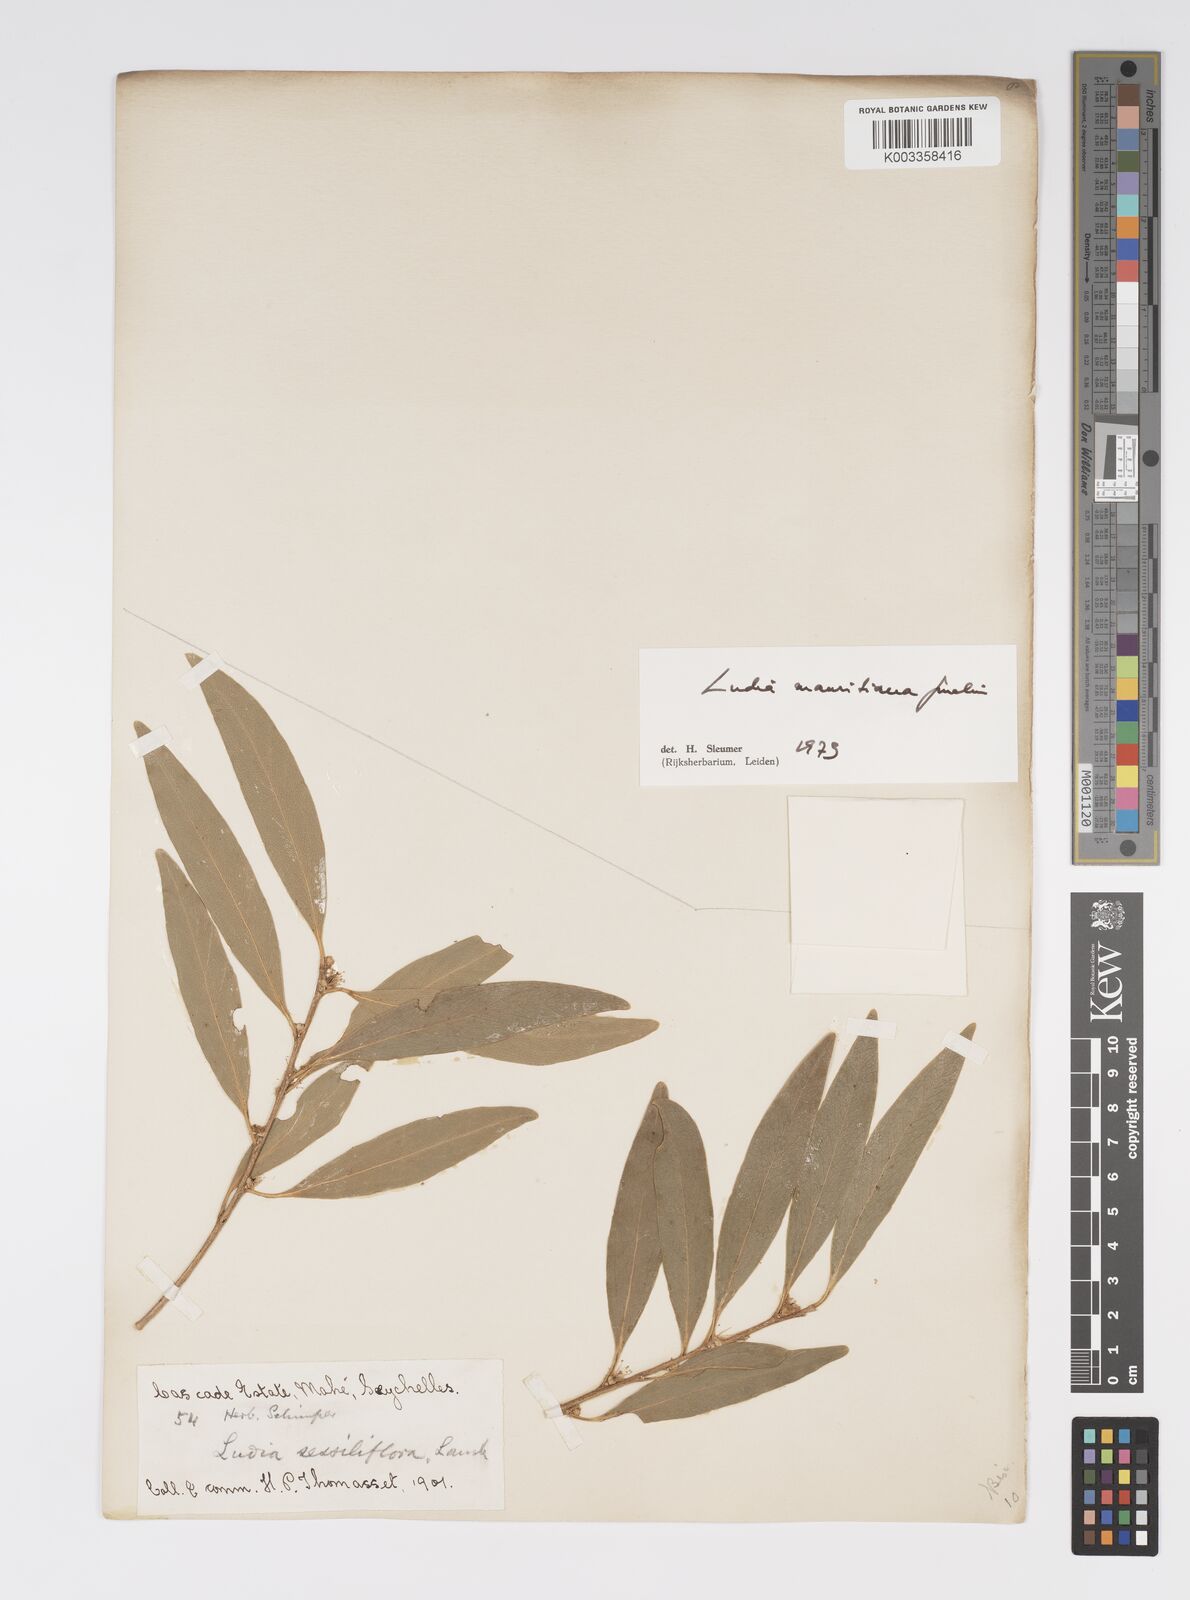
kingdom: Plantae
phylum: Tracheophyta
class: Magnoliopsida
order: Malpighiales
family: Salicaceae
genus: Ludia
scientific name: Ludia mauritiana
